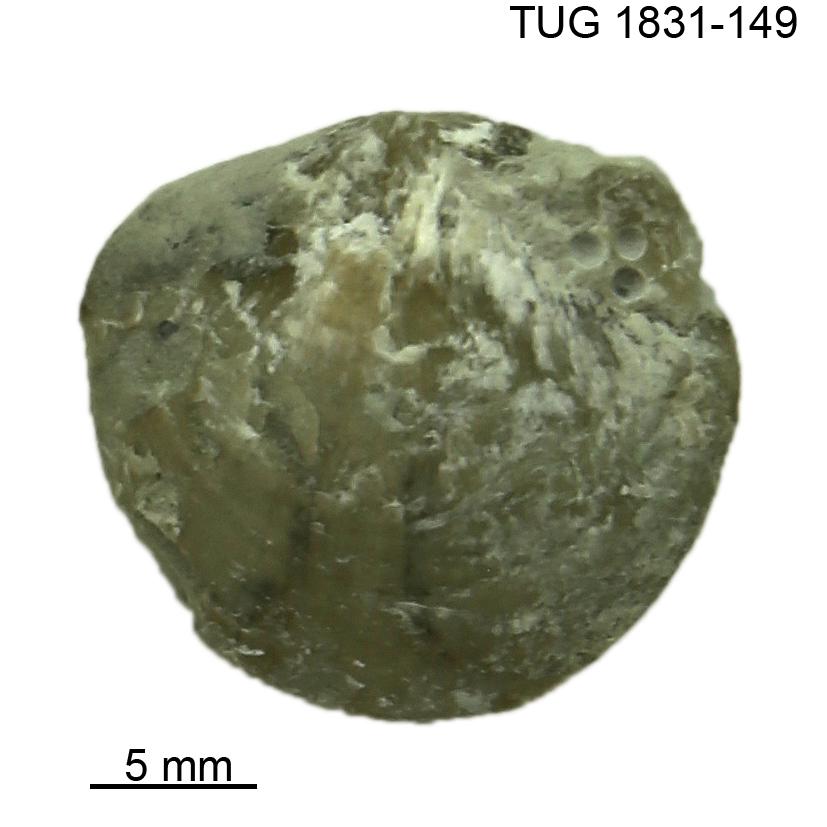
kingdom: Animalia
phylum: Brachiopoda
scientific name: Brachiopoda
